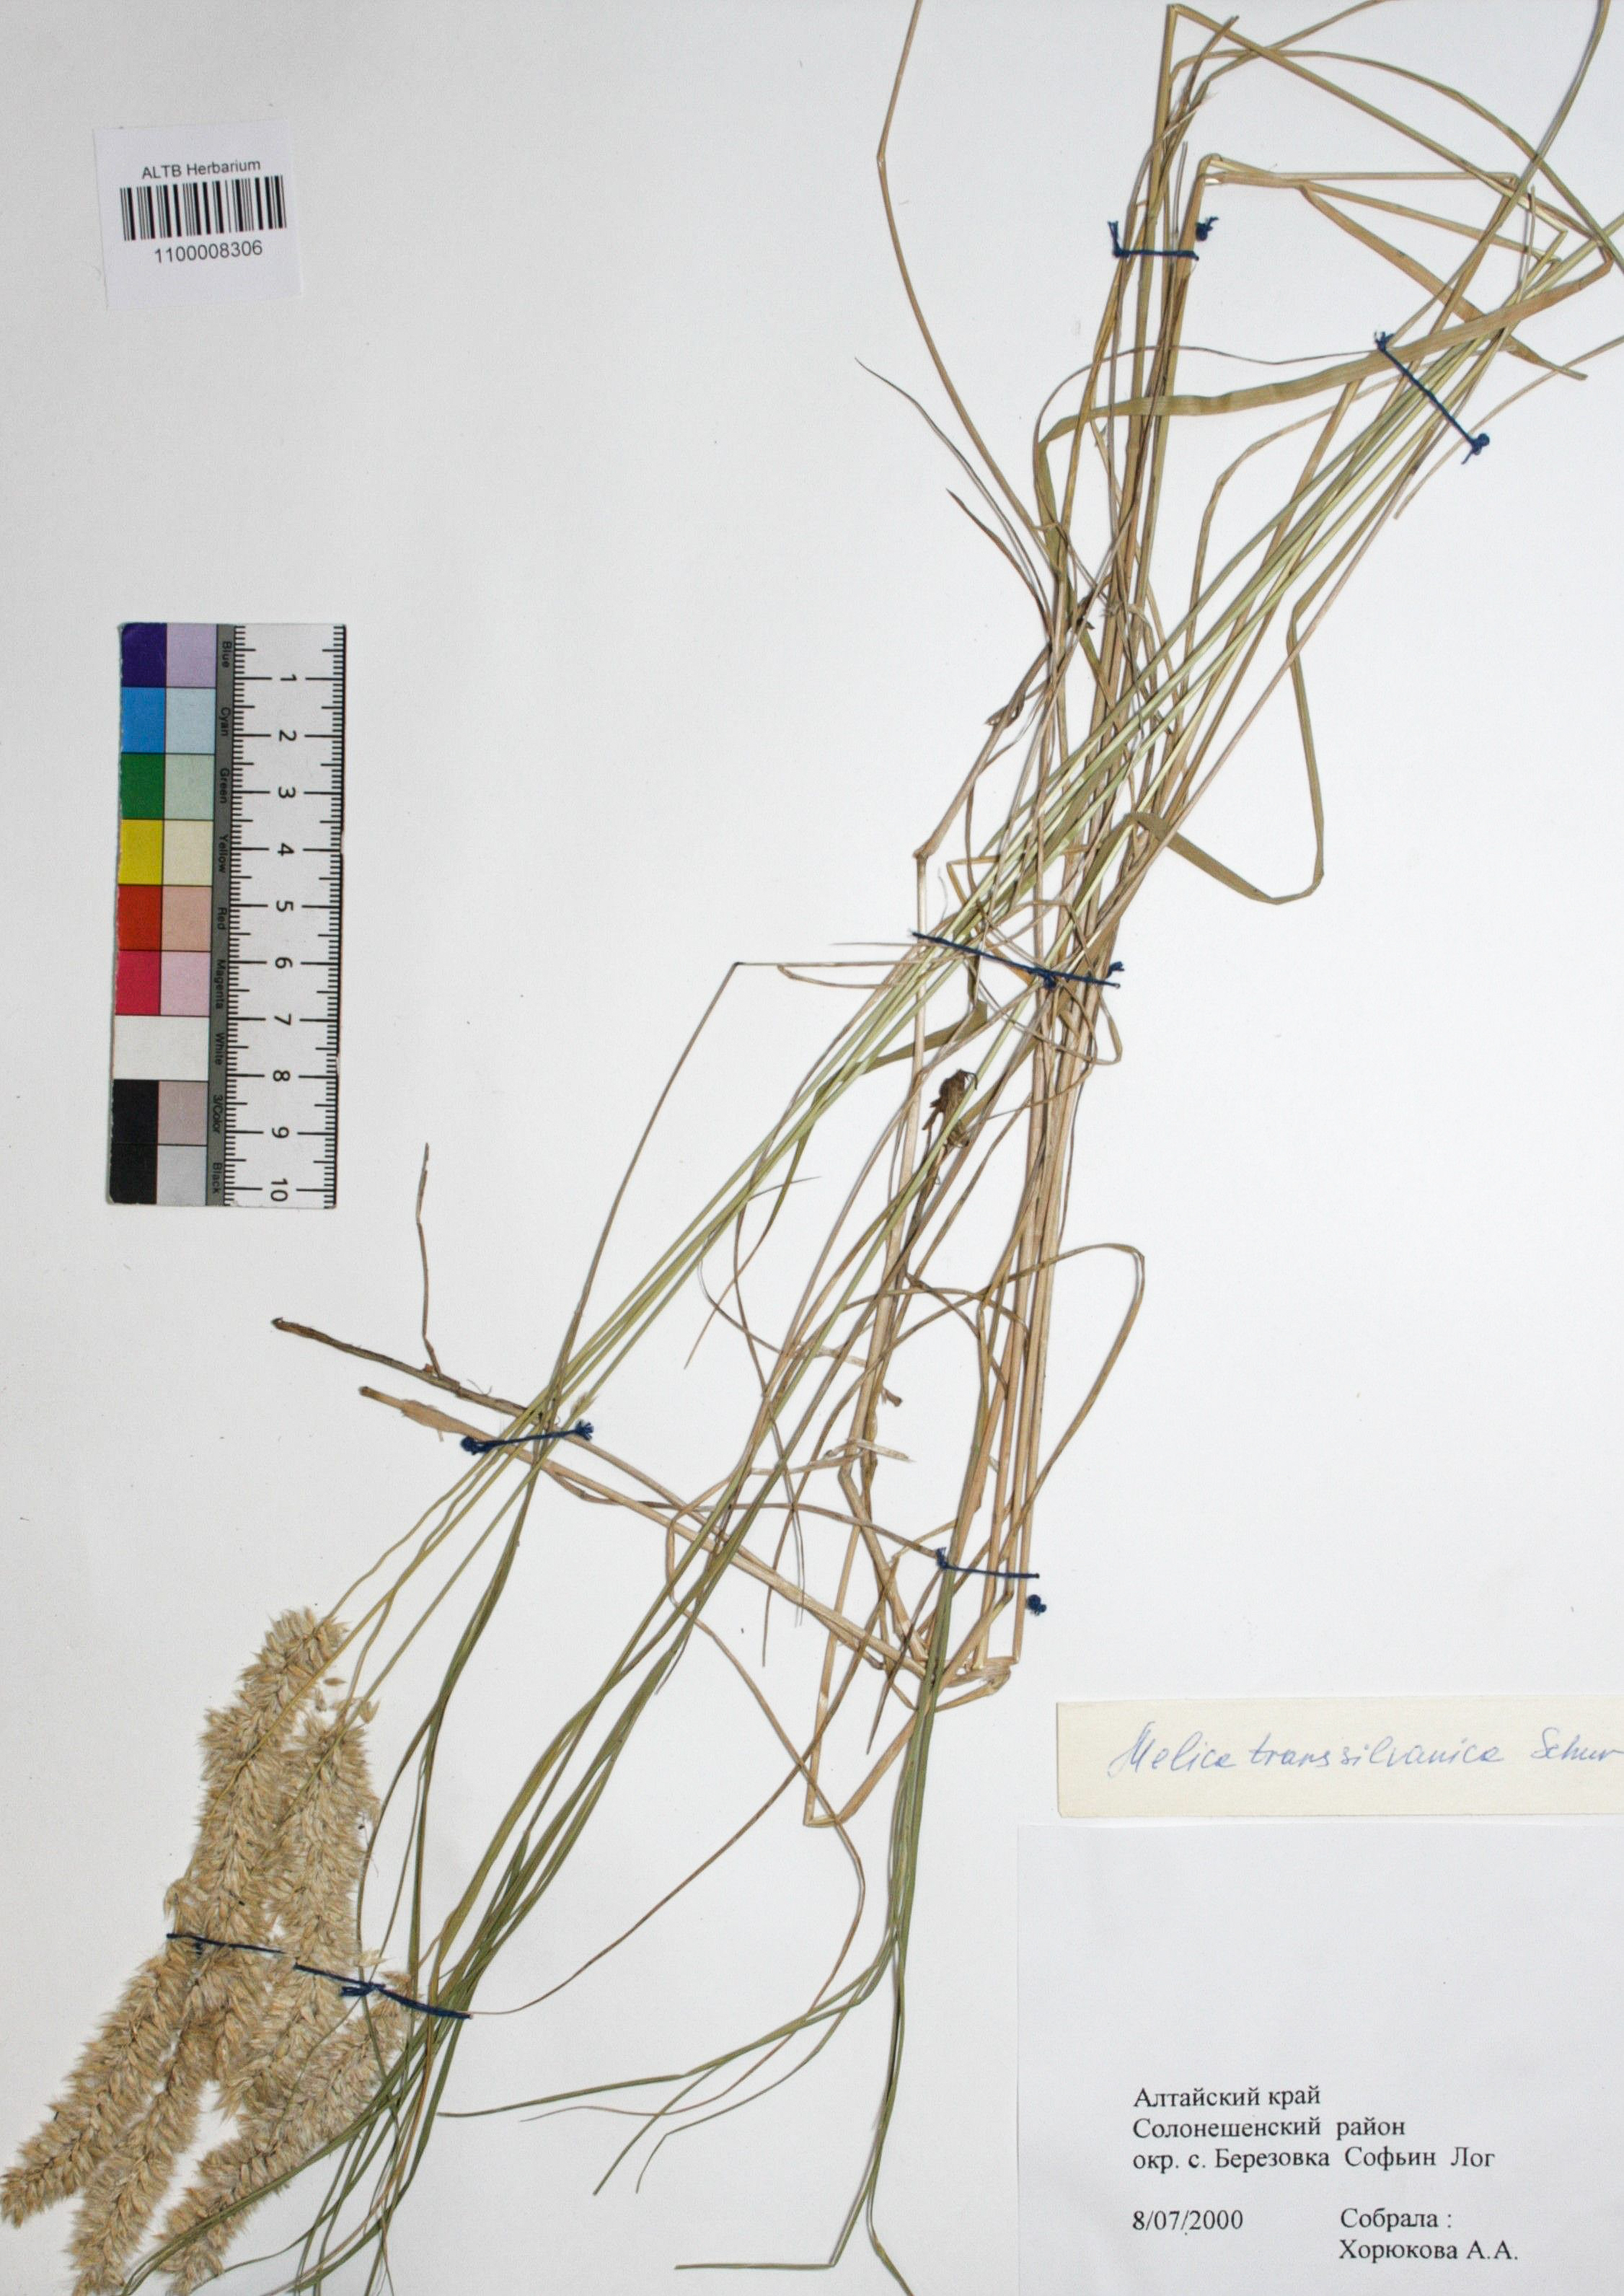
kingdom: Plantae
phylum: Tracheophyta
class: Liliopsida
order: Poales
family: Poaceae
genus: Melica
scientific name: Melica transsilvanica
